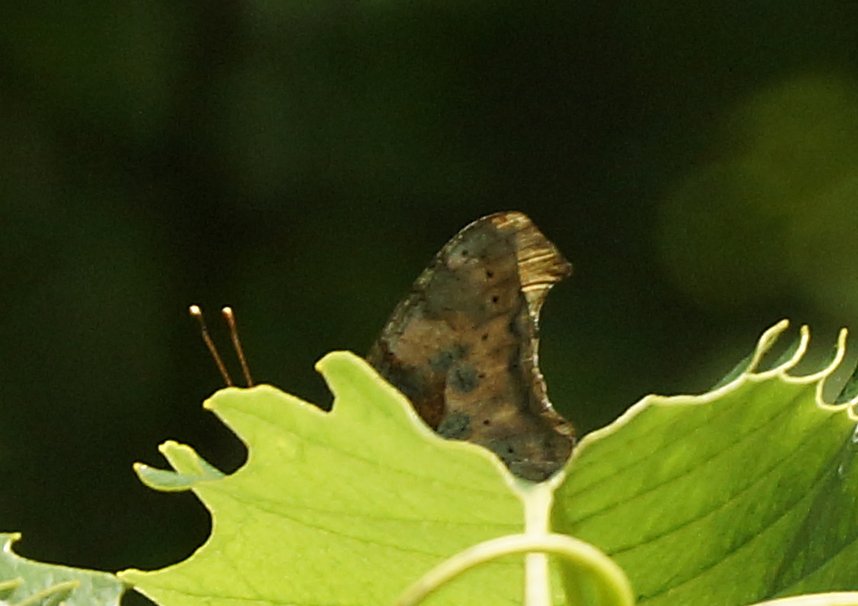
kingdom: Animalia
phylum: Arthropoda
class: Insecta
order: Lepidoptera
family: Nymphalidae
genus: Polygonia
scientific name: Polygonia
